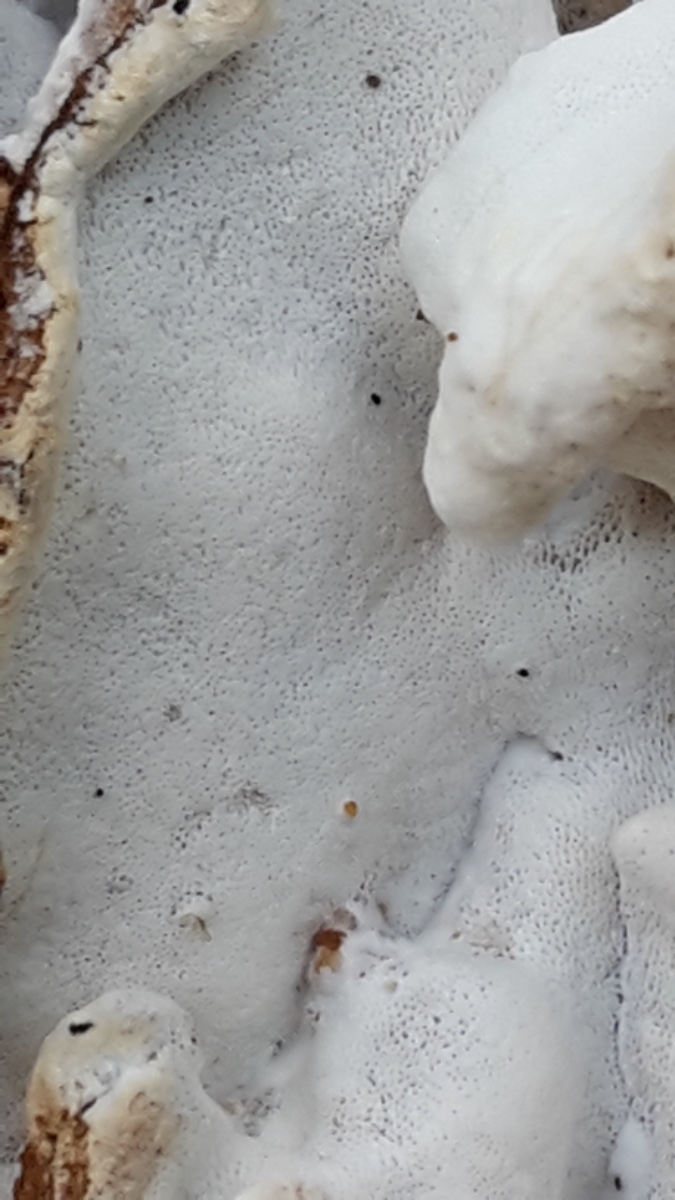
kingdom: Fungi
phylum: Basidiomycota
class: Agaricomycetes
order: Polyporales
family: Incrustoporiaceae
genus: Skeletocutis
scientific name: Skeletocutis nemoralis
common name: stor krystalporesvamp
